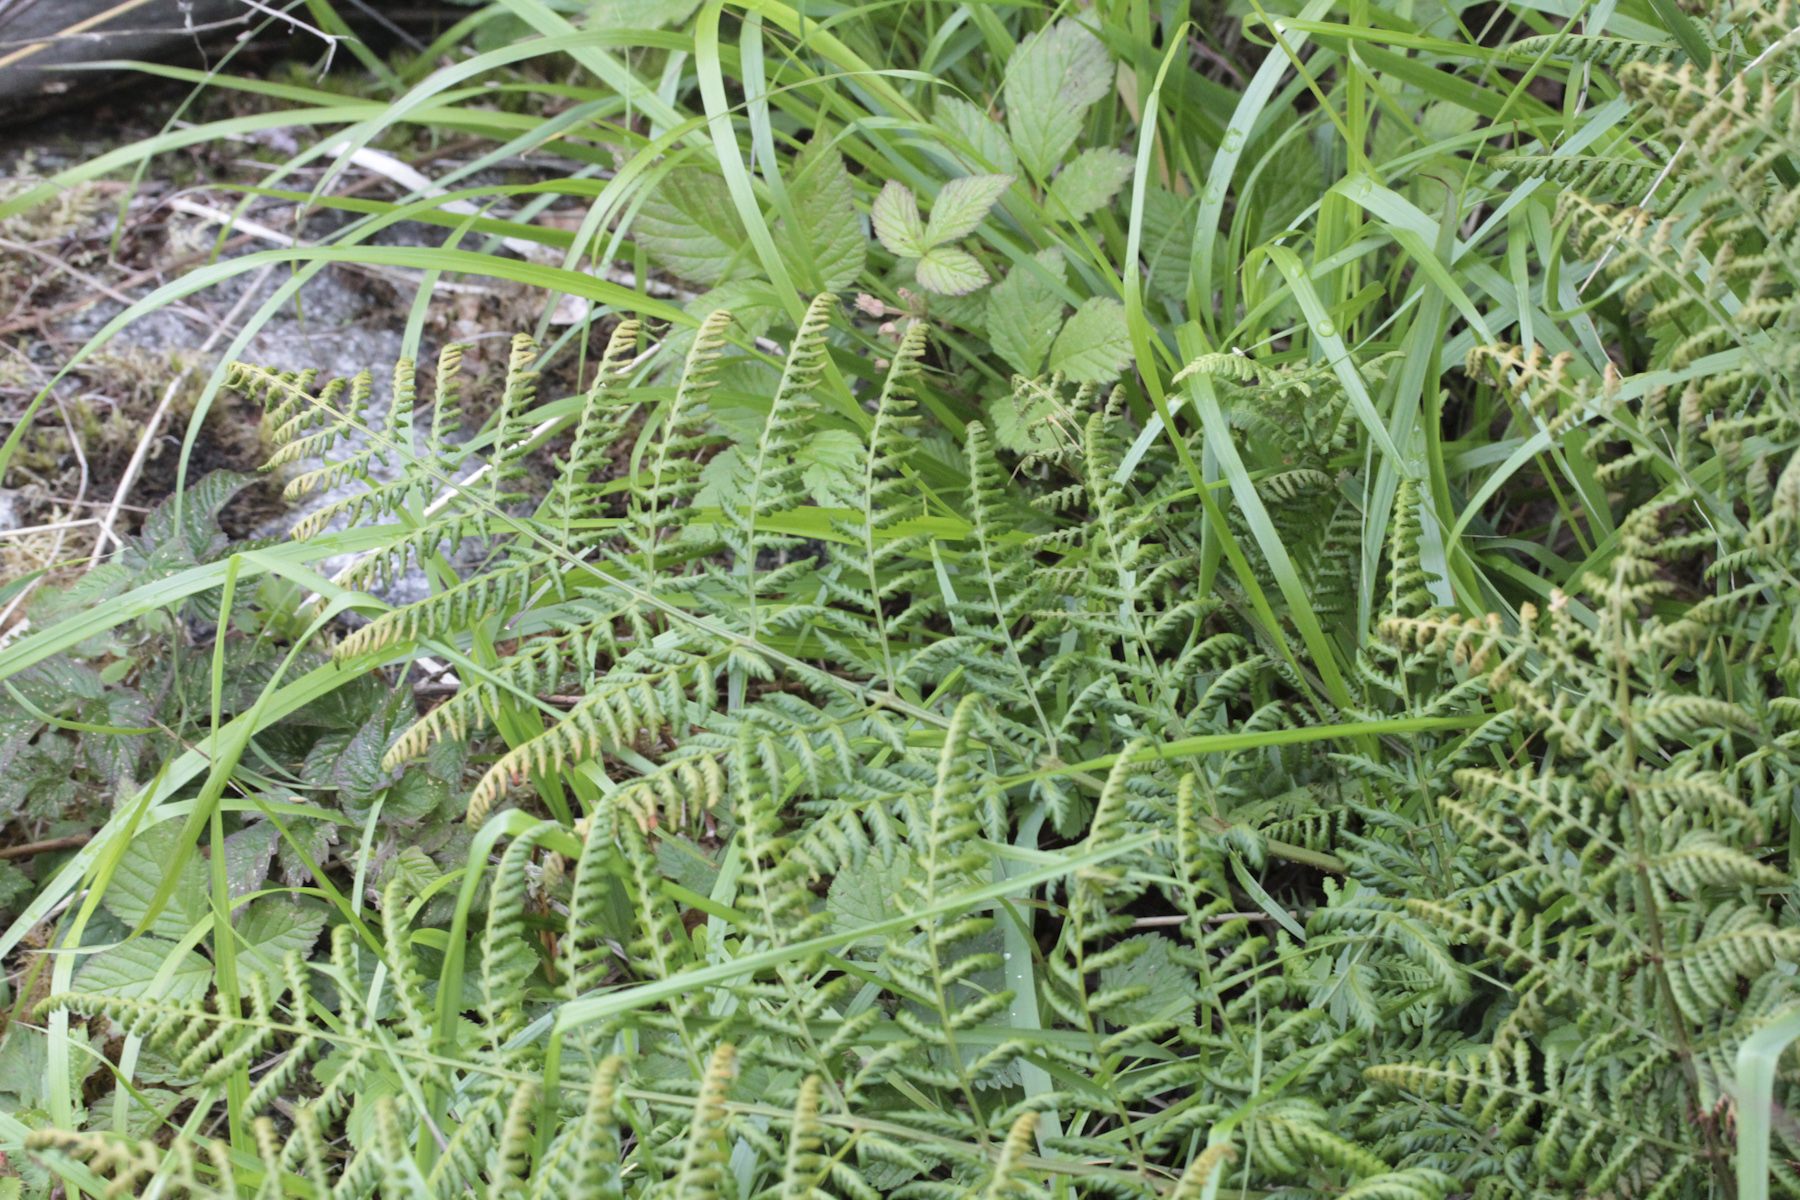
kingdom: Plantae
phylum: Tracheophyta
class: Polypodiopsida
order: Polypodiales
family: Dryopteridaceae
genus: Dryopteris
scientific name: Dryopteris carthusiana
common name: Narrow buckler-fern
